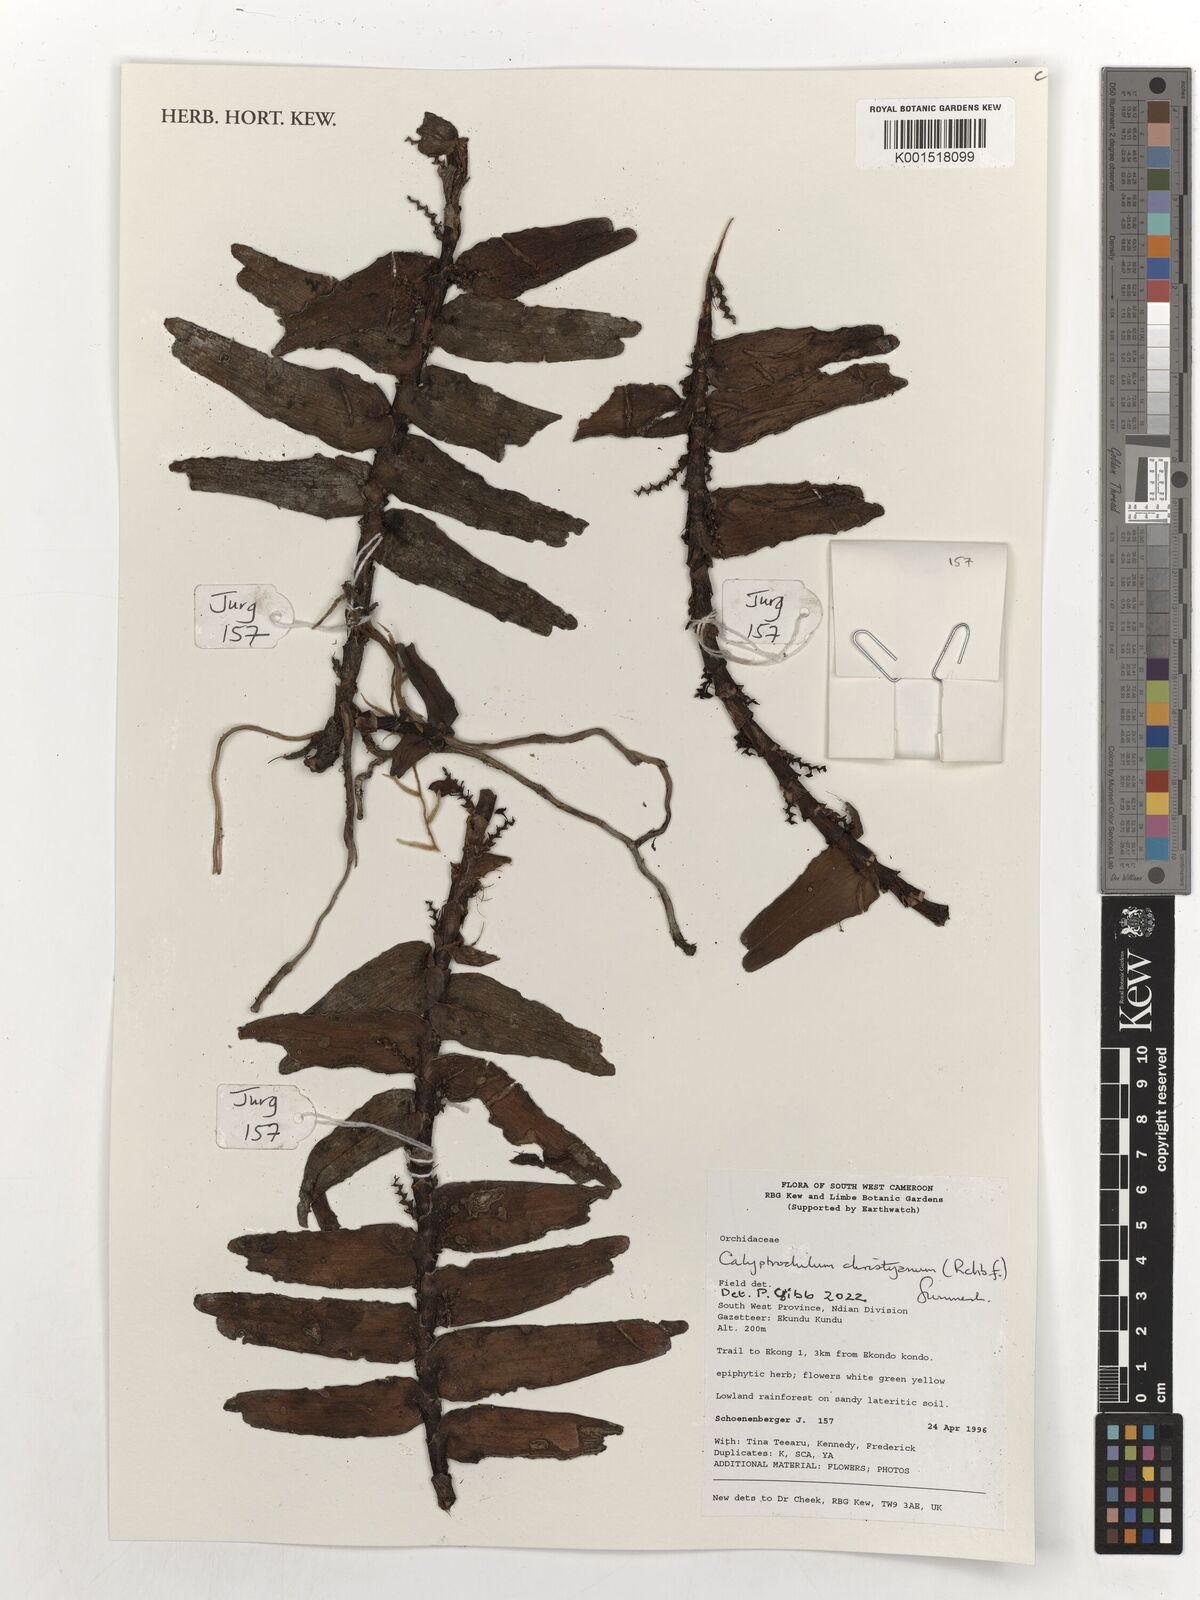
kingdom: Plantae
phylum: Tracheophyta
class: Liliopsida
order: Asparagales
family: Orchidaceae
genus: Calyptrochilum
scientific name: Calyptrochilum christyanum
